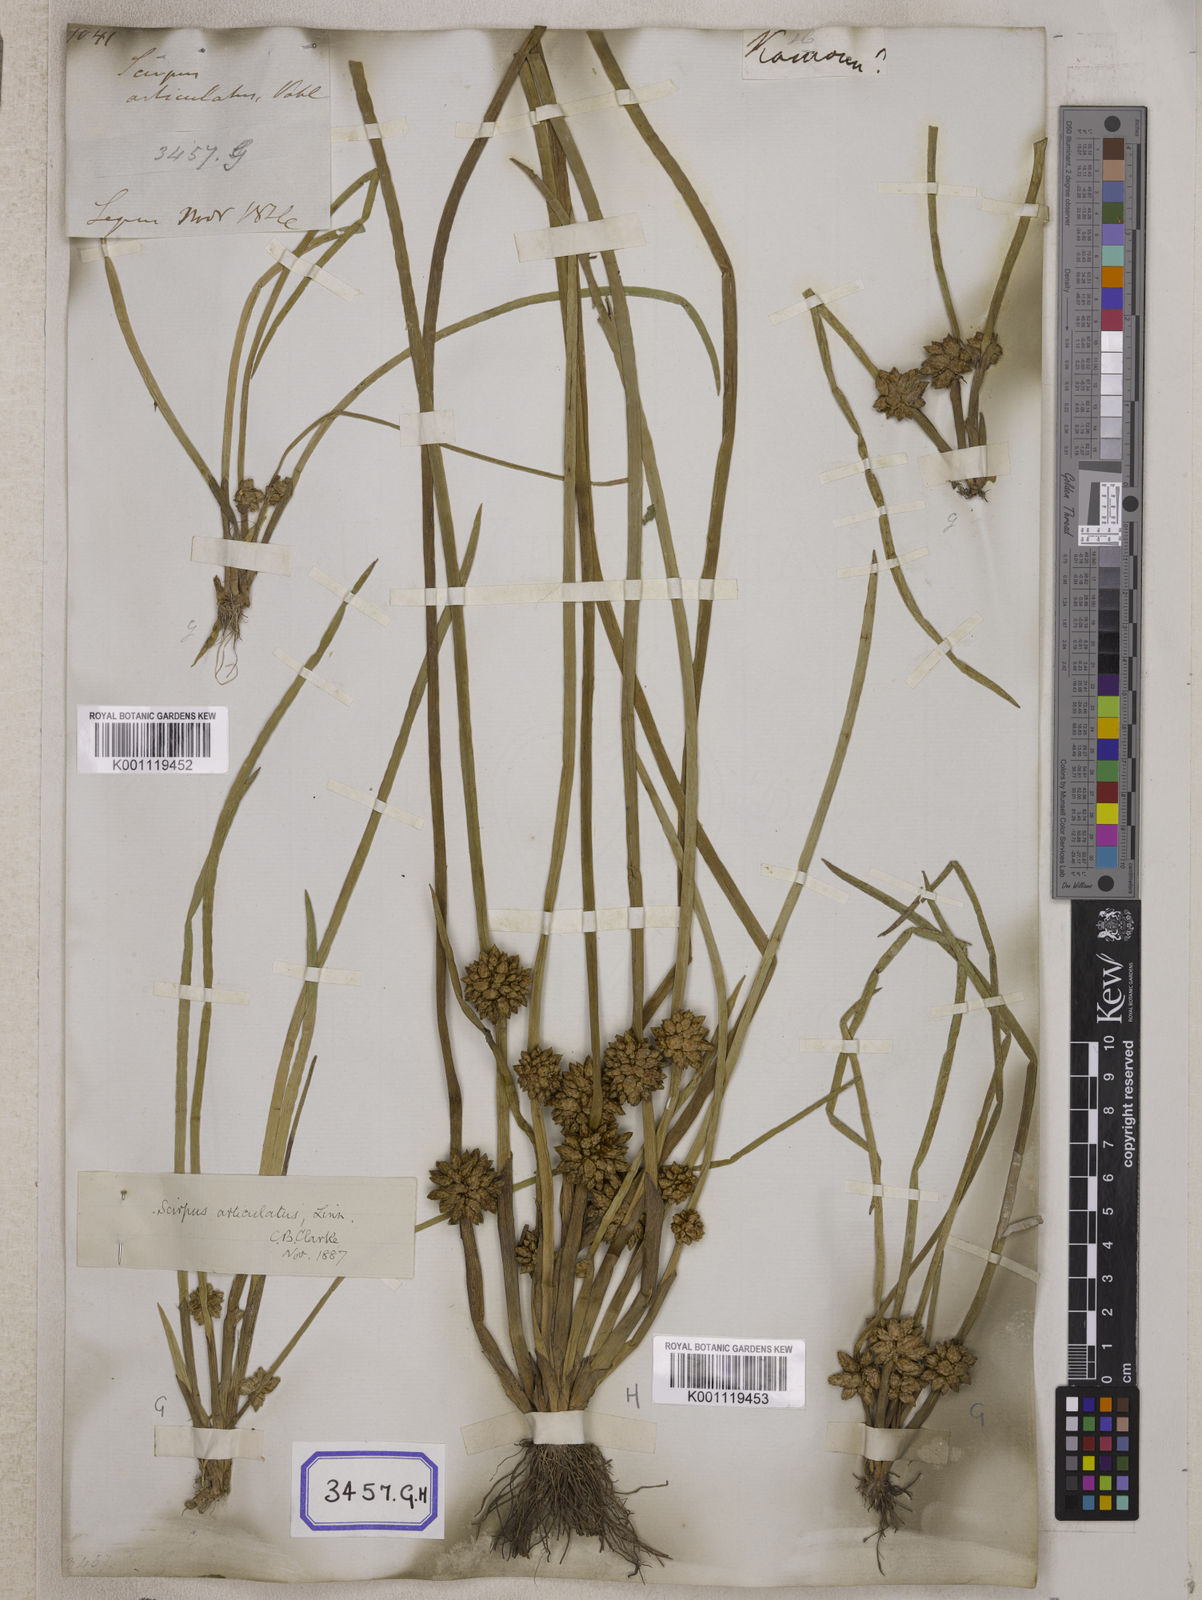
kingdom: Plantae
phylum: Tracheophyta
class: Liliopsida
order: Poales
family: Cyperaceae
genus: Scirpus
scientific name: Scirpus
